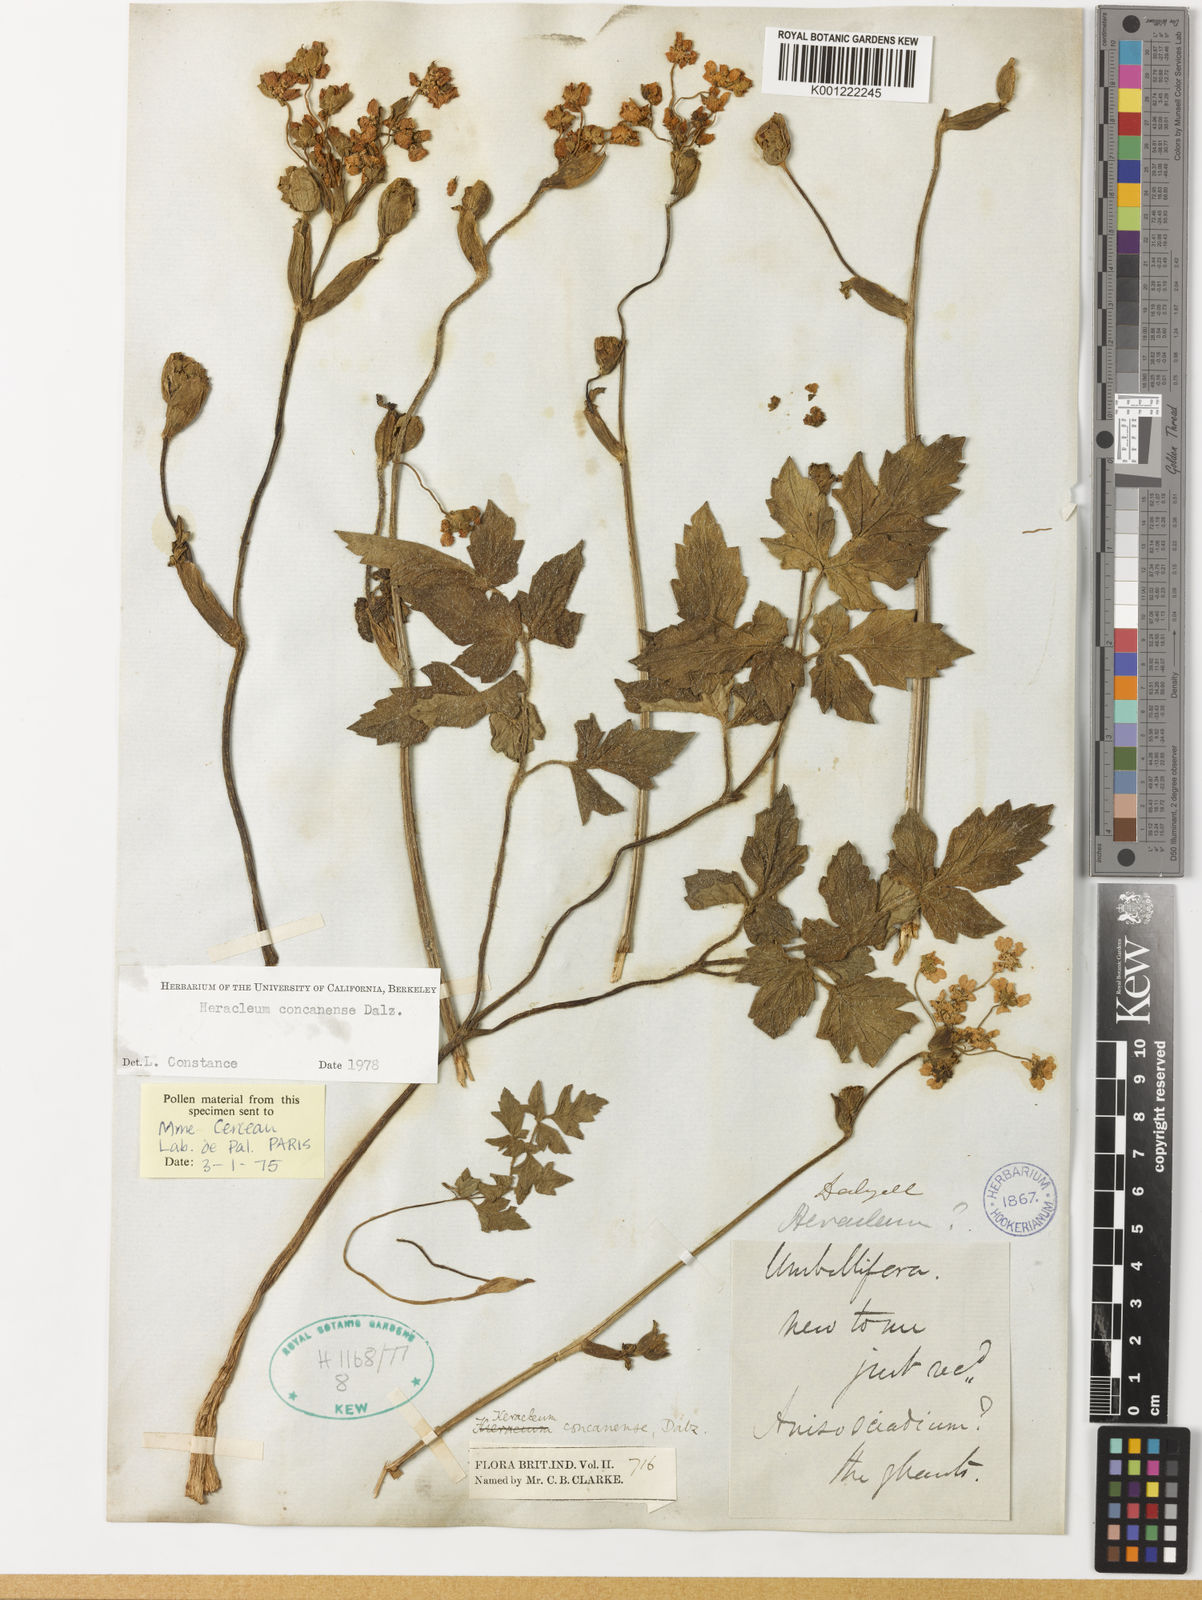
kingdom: Plantae
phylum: Tracheophyta
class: Magnoliopsida
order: Apiales
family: Apiaceae
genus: Pinda
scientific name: Pinda concanensis
